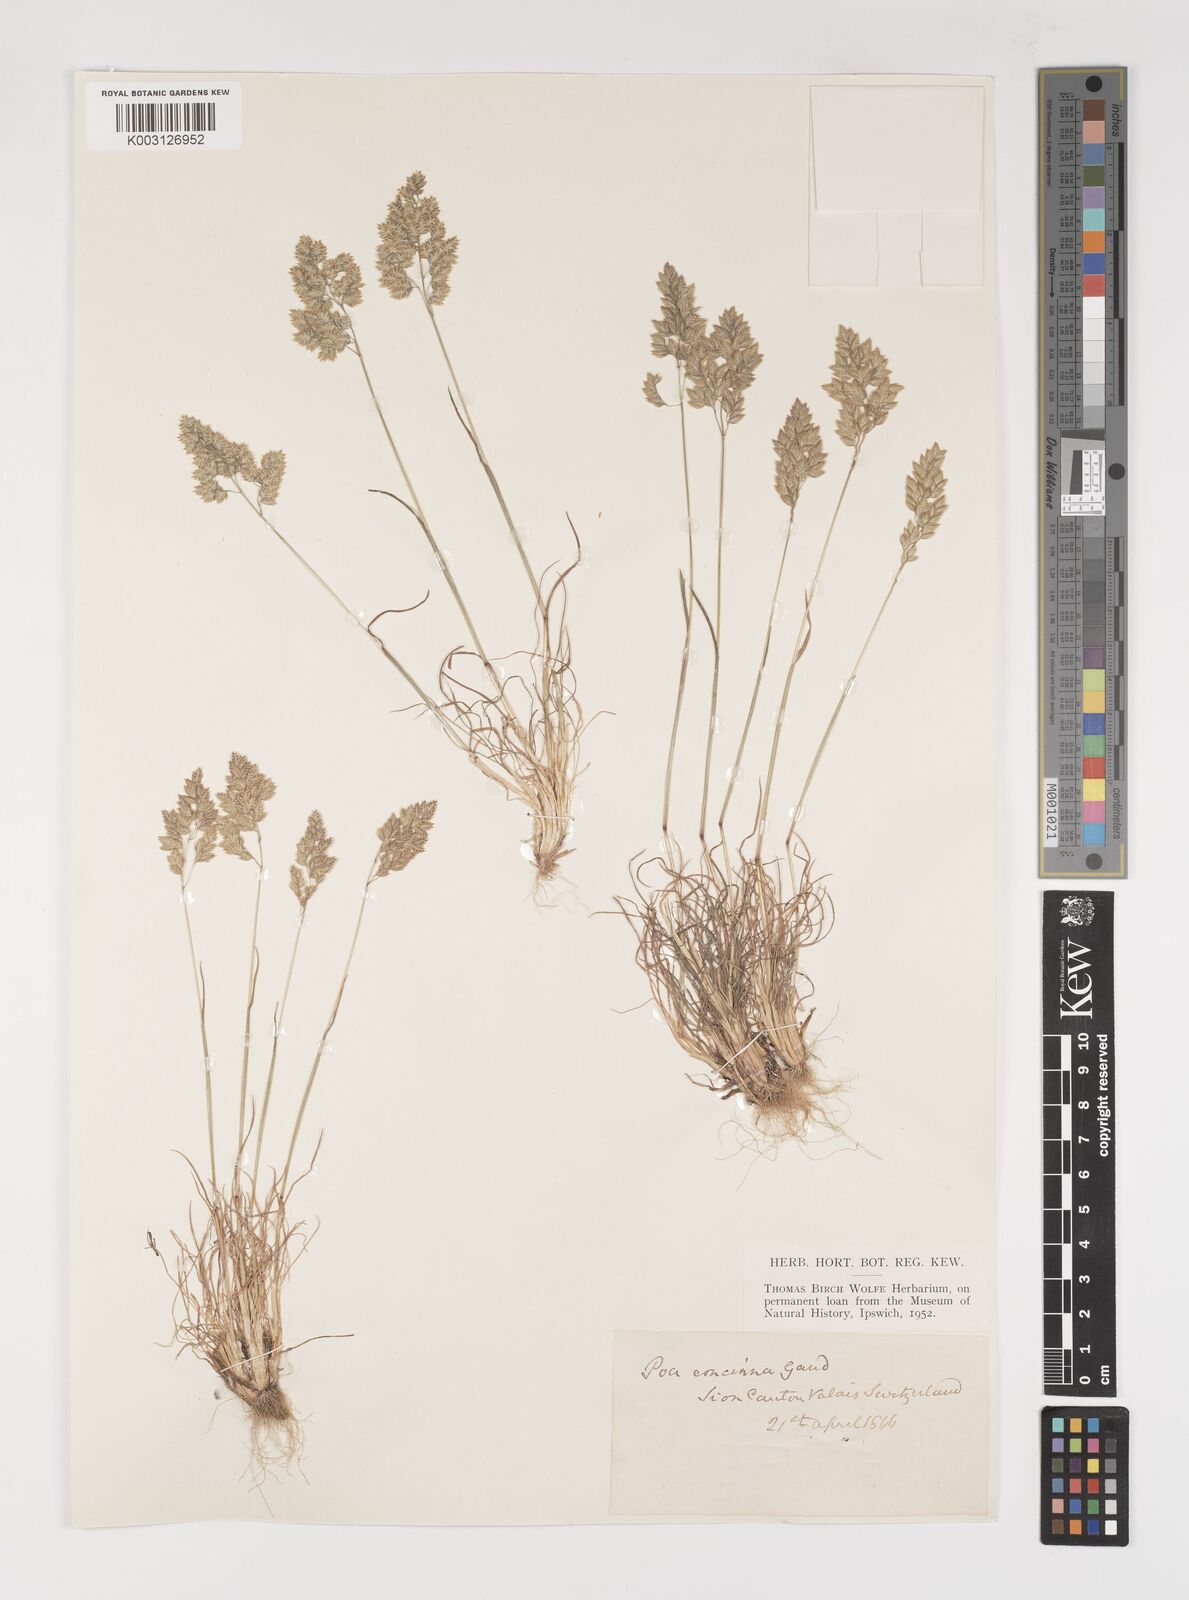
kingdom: Plantae
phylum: Tracheophyta
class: Liliopsida
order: Poales
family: Poaceae
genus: Poa
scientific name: Poa perconcinna
